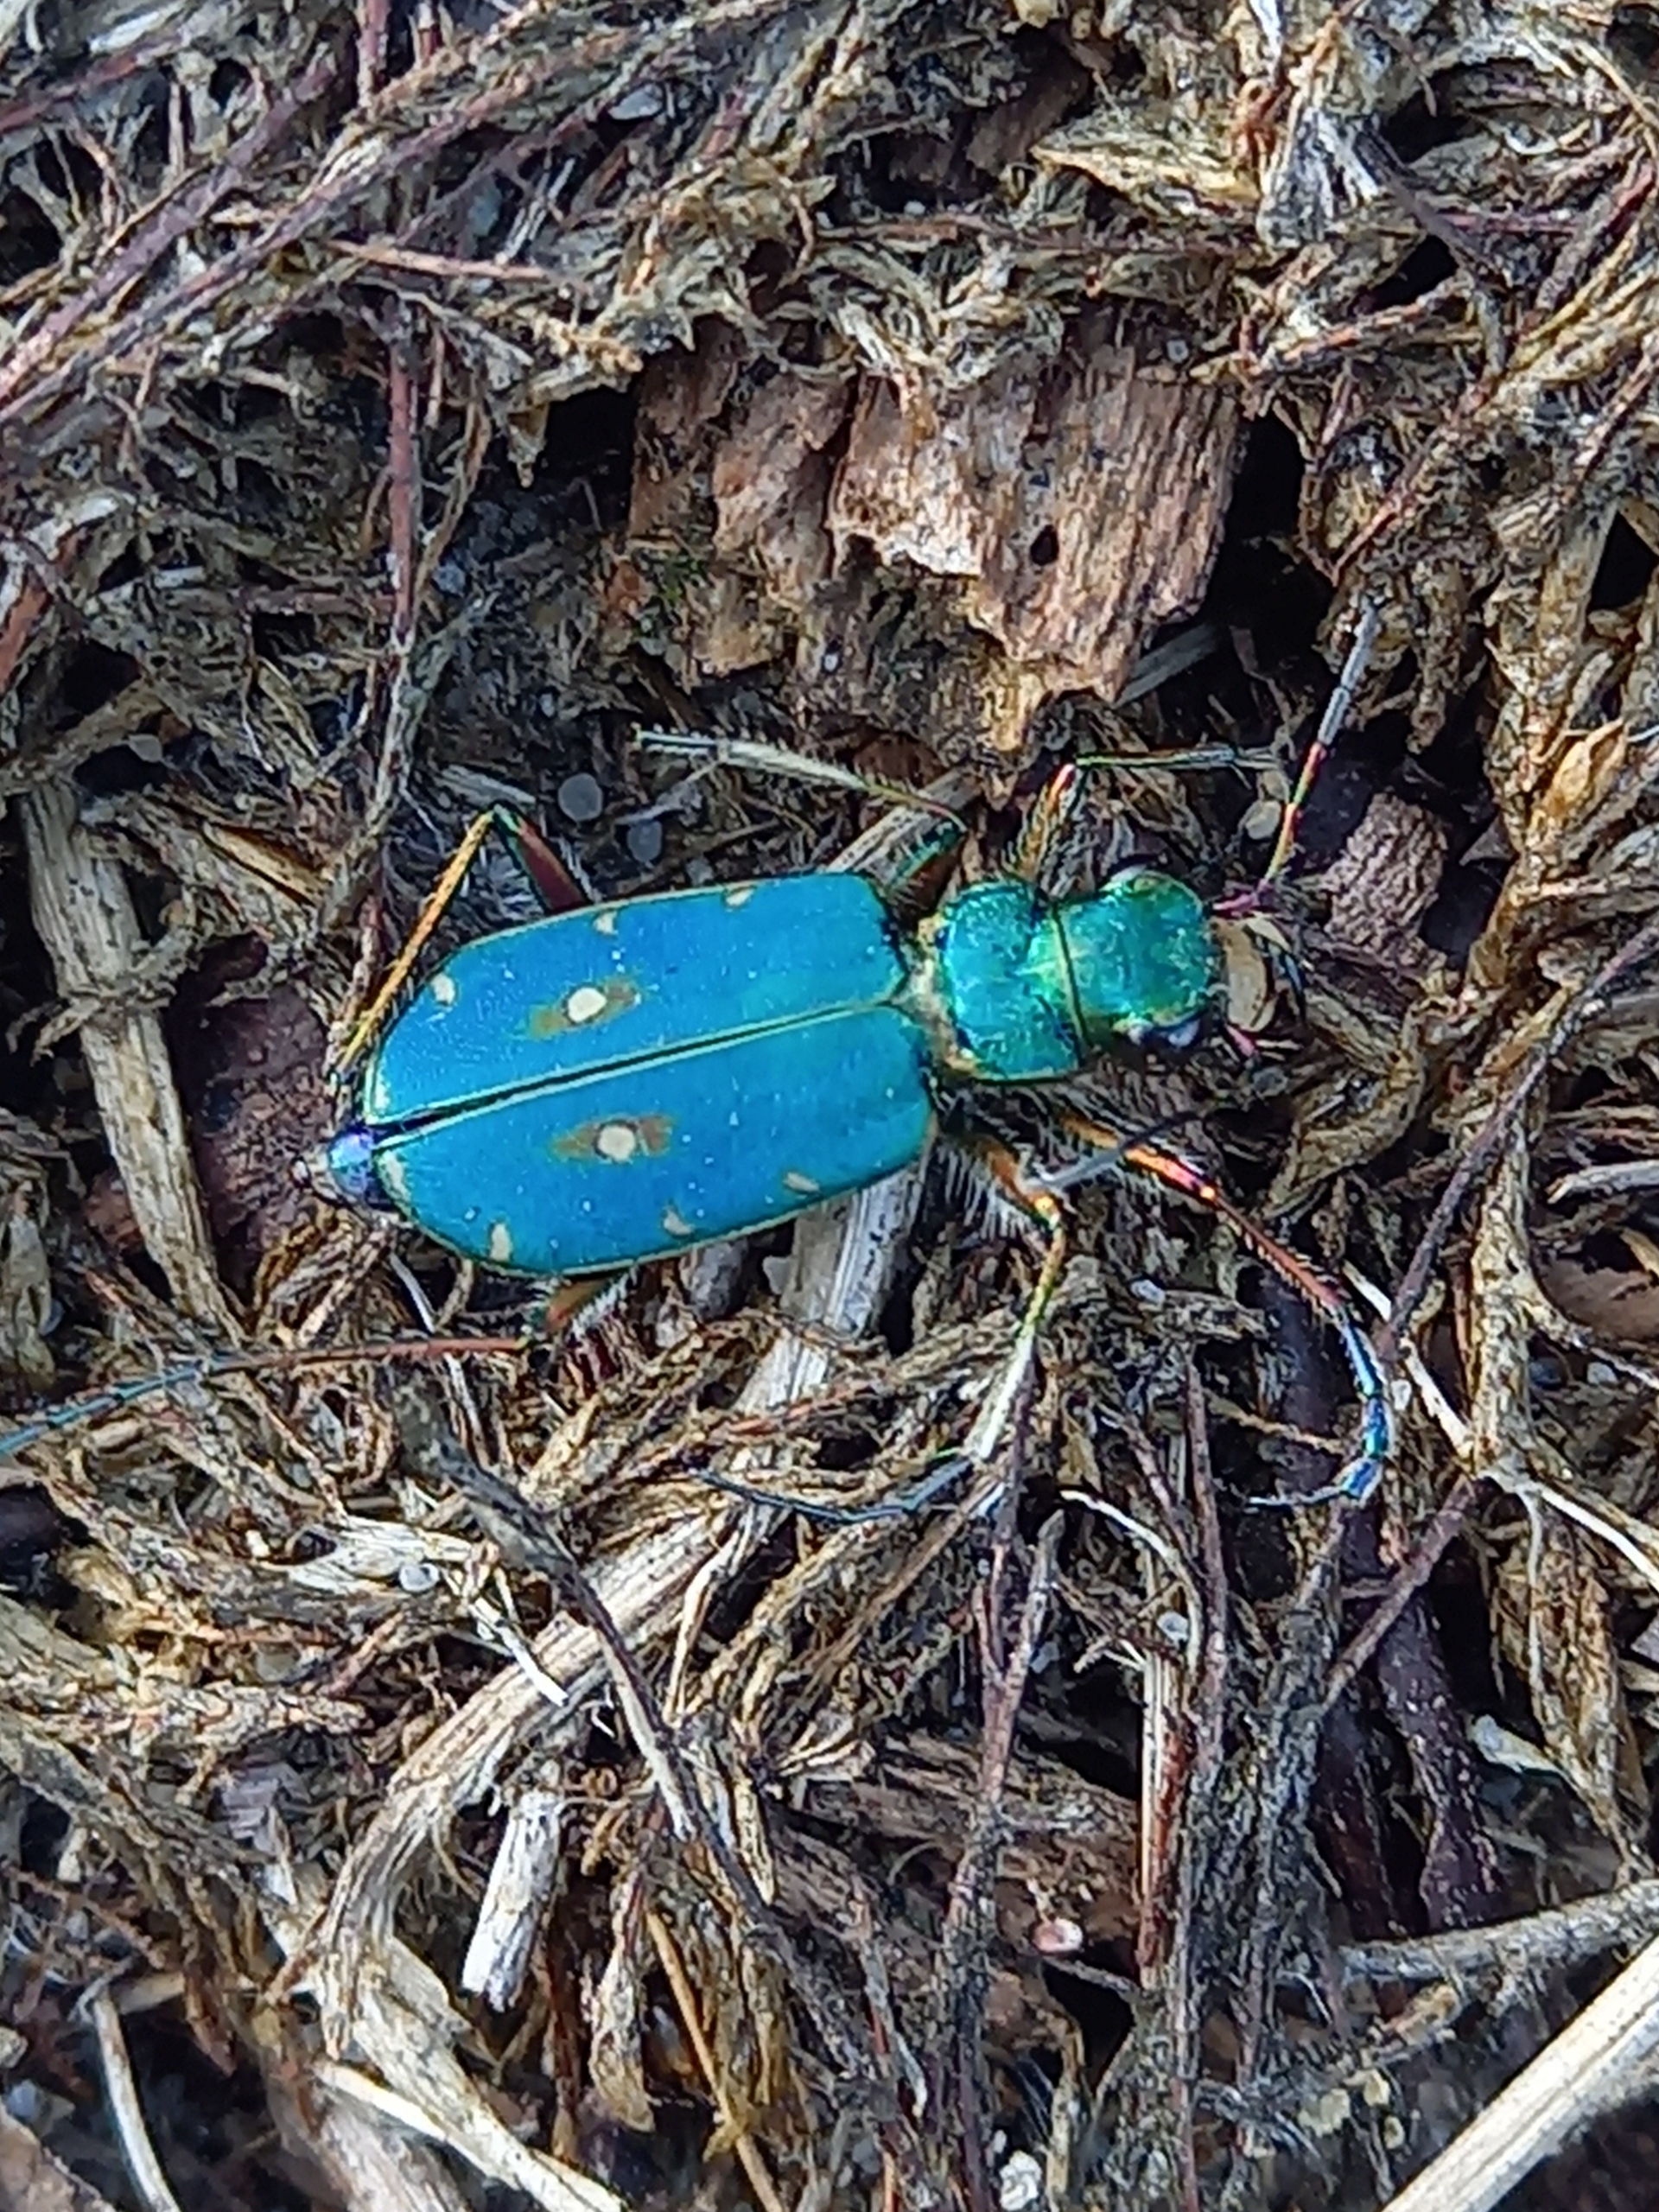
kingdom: Animalia
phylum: Arthropoda
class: Insecta
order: Coleoptera
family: Carabidae
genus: Cicindela
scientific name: Cicindela campestris
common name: Grøn sandspringer
